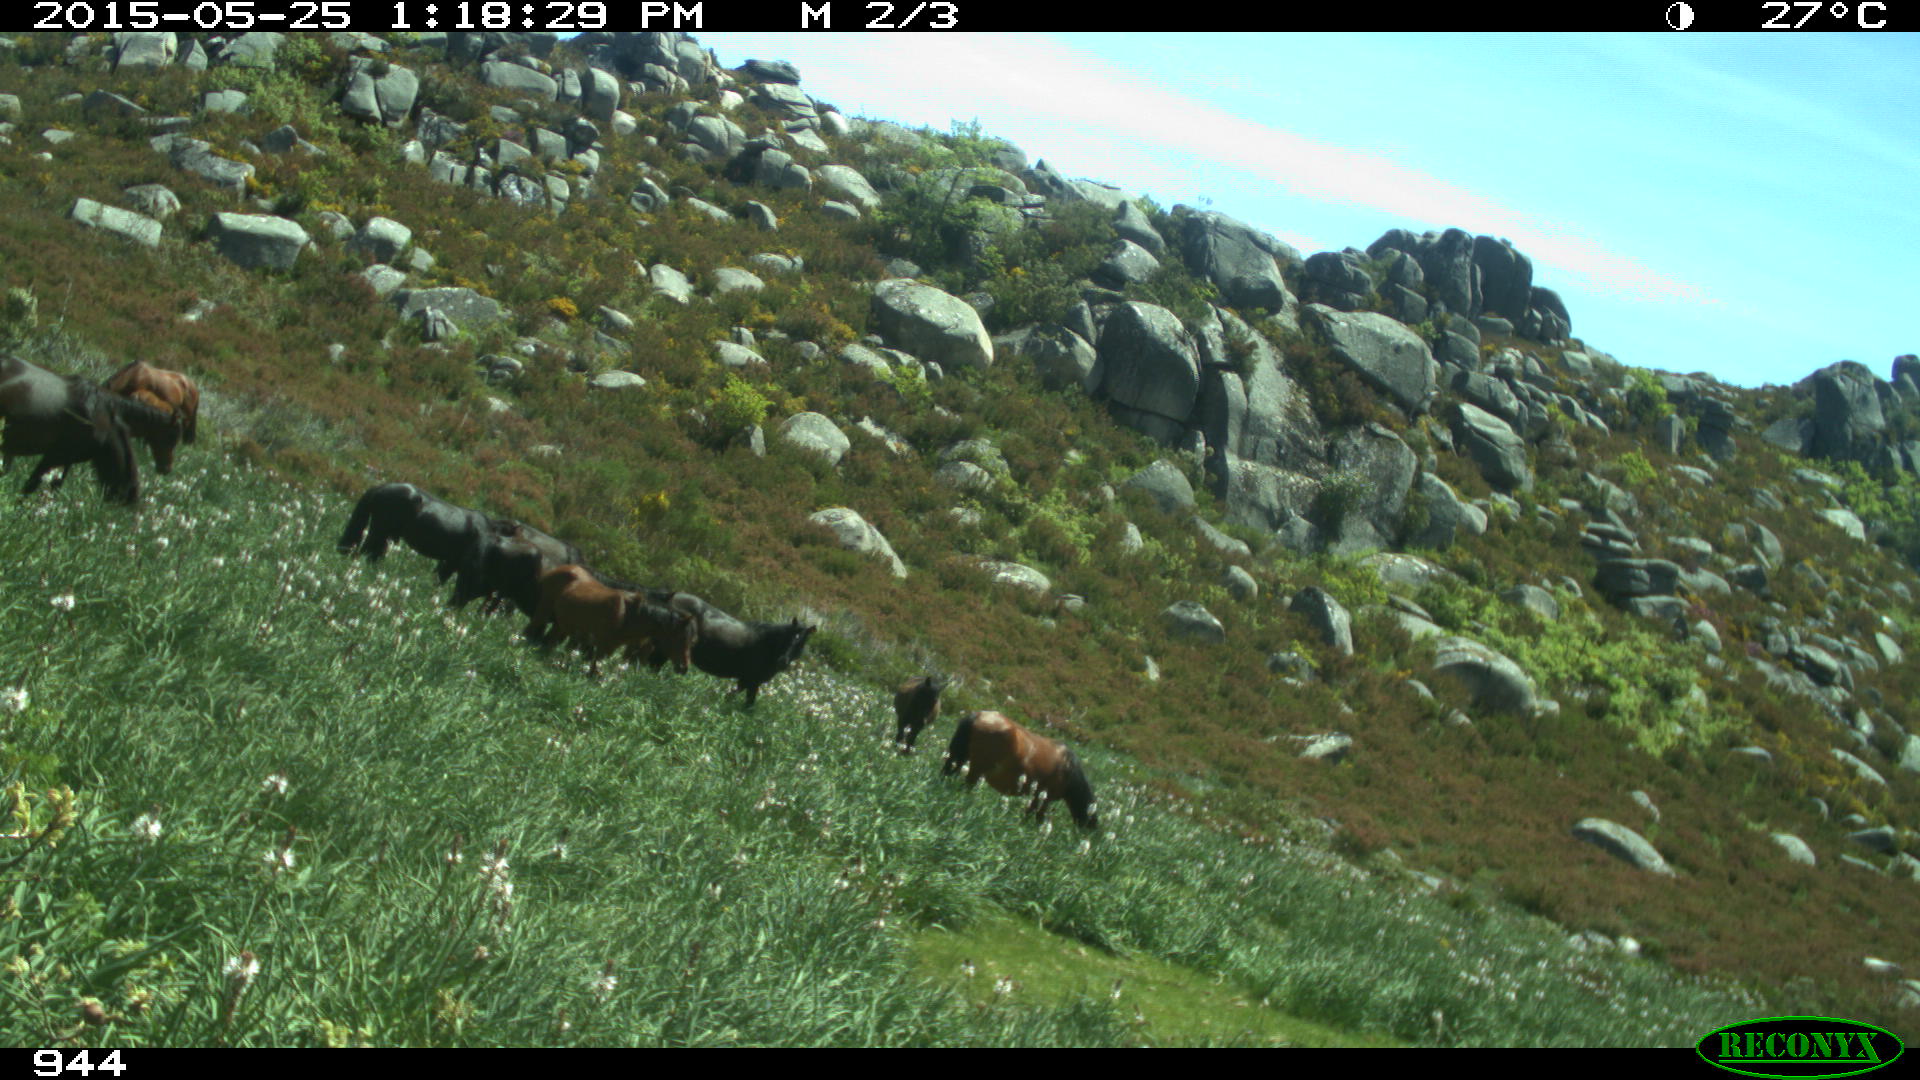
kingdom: Animalia
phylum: Chordata
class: Mammalia
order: Perissodactyla
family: Equidae
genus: Equus
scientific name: Equus caballus
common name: Horse
